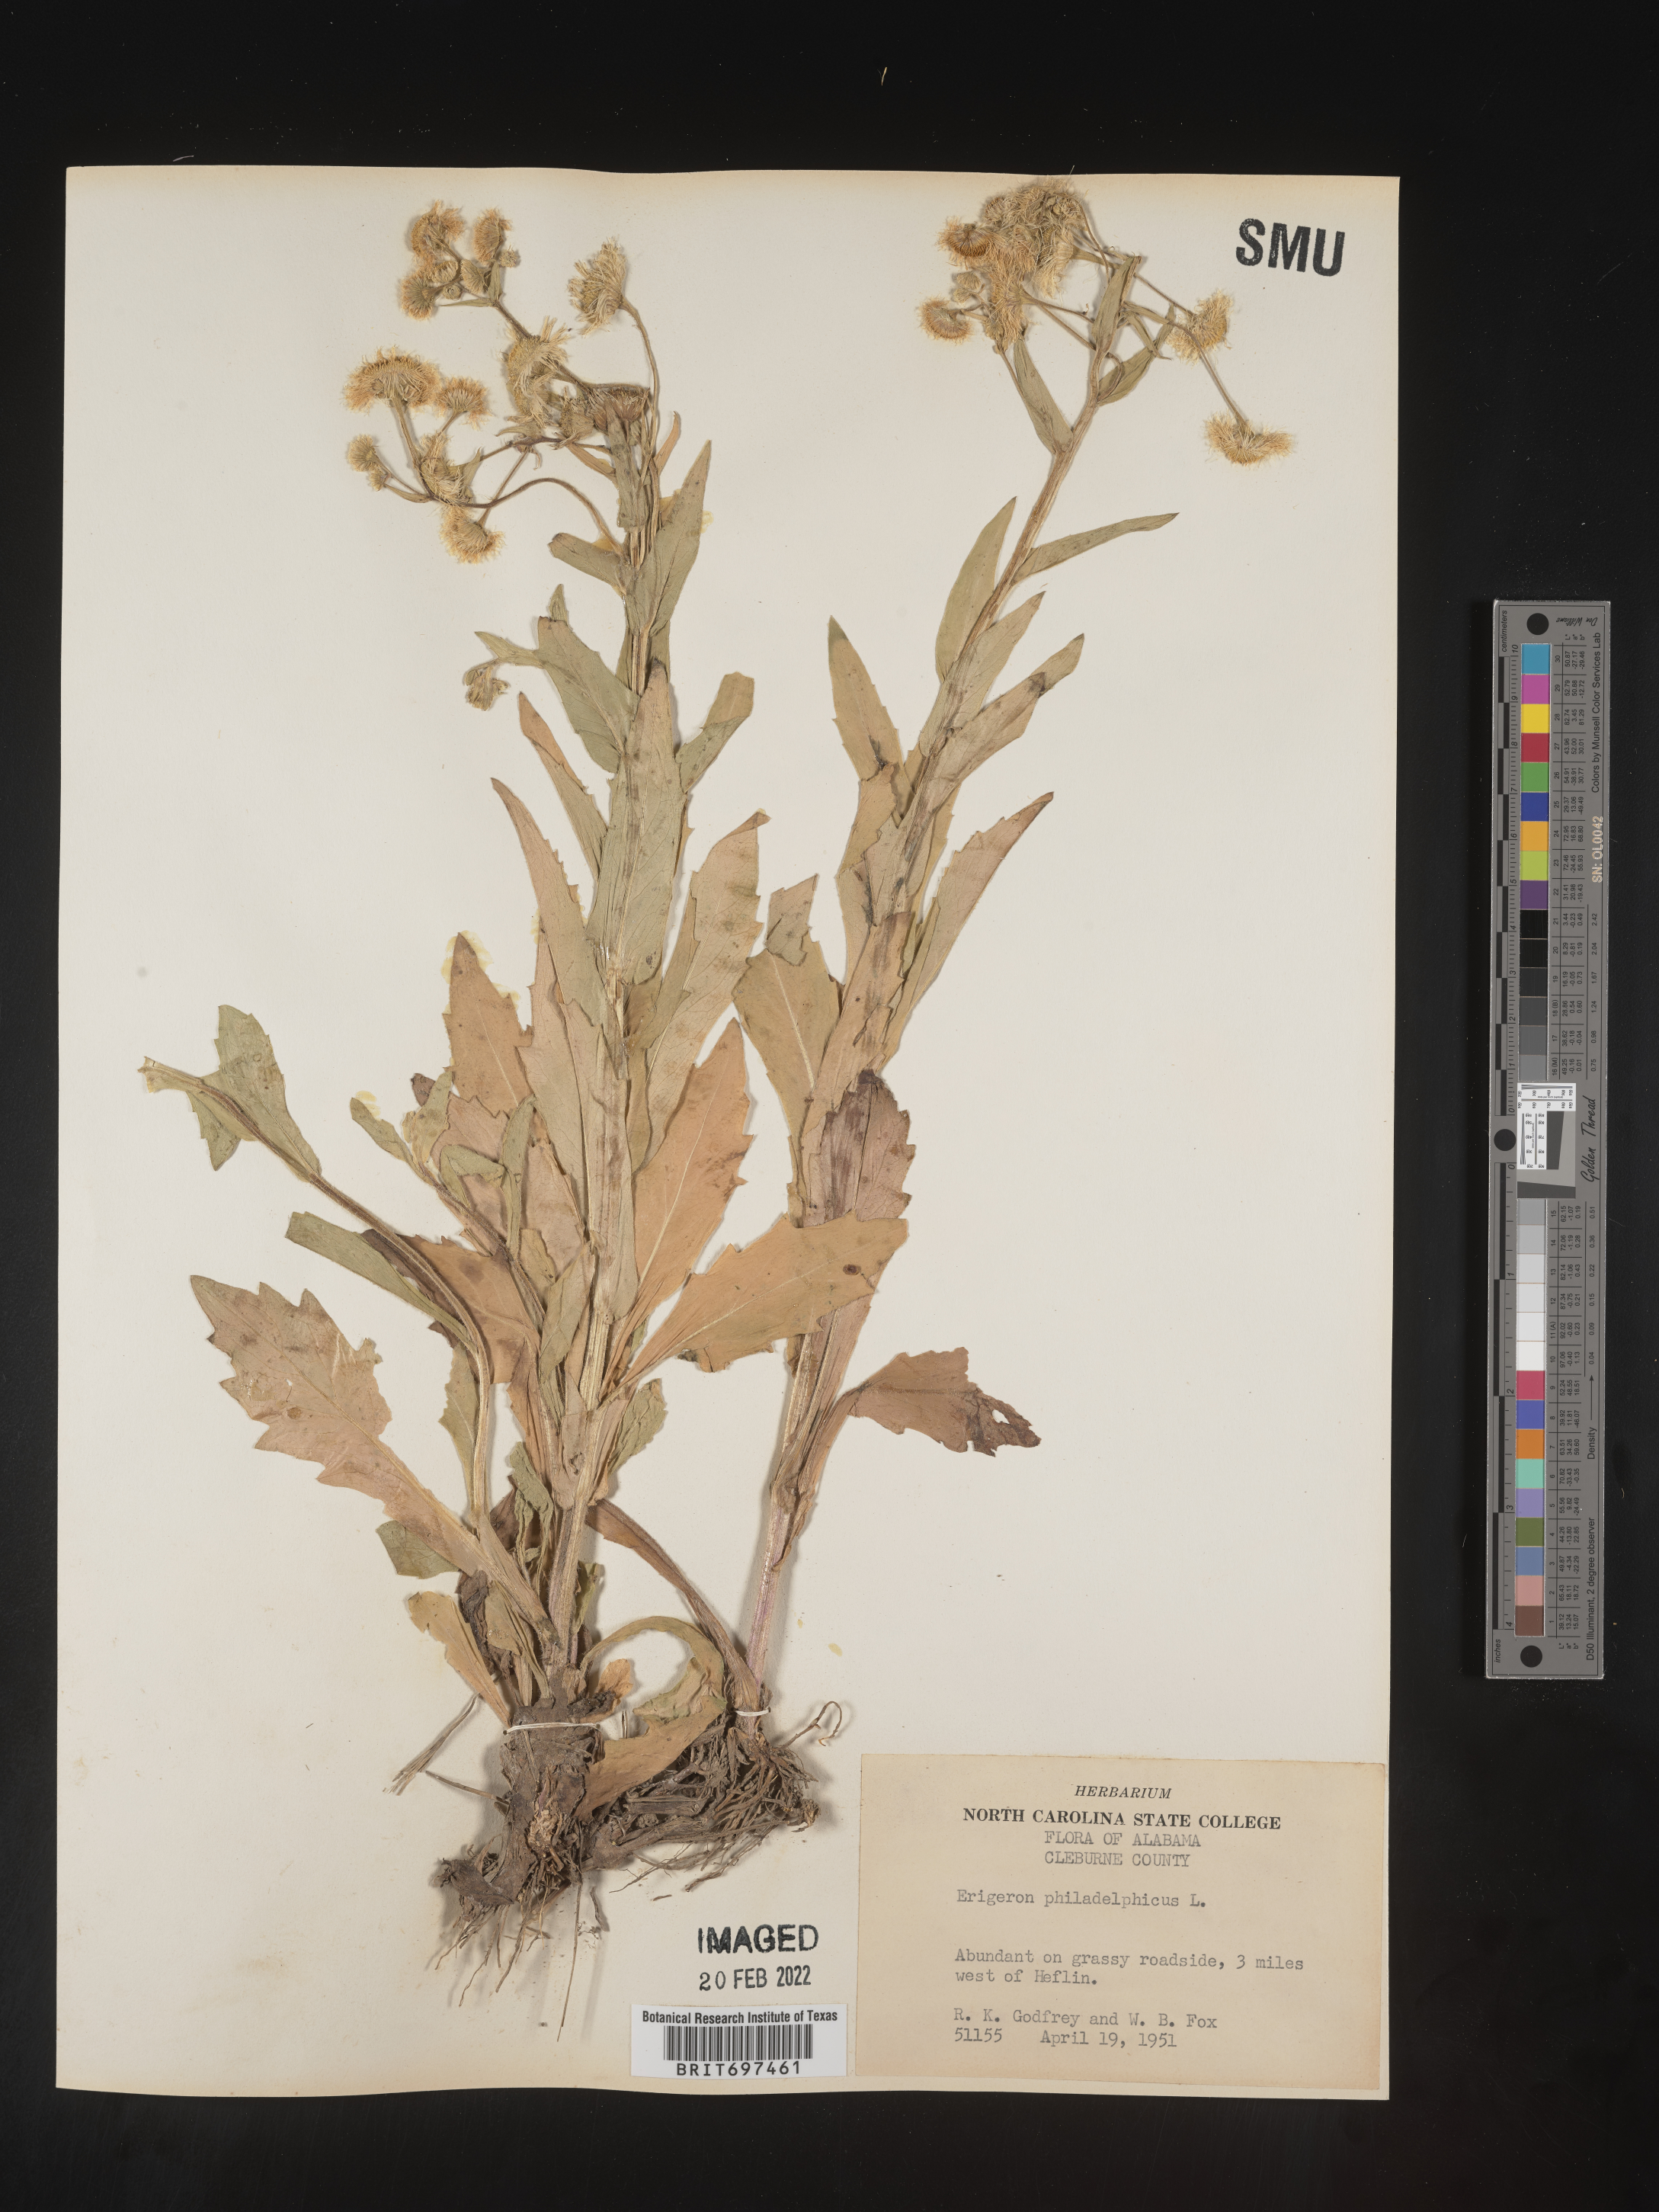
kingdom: Plantae
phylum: Tracheophyta
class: Magnoliopsida
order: Asterales
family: Asteraceae
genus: Erigeron
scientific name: Erigeron philadelphicus
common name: Robin's-plantain
